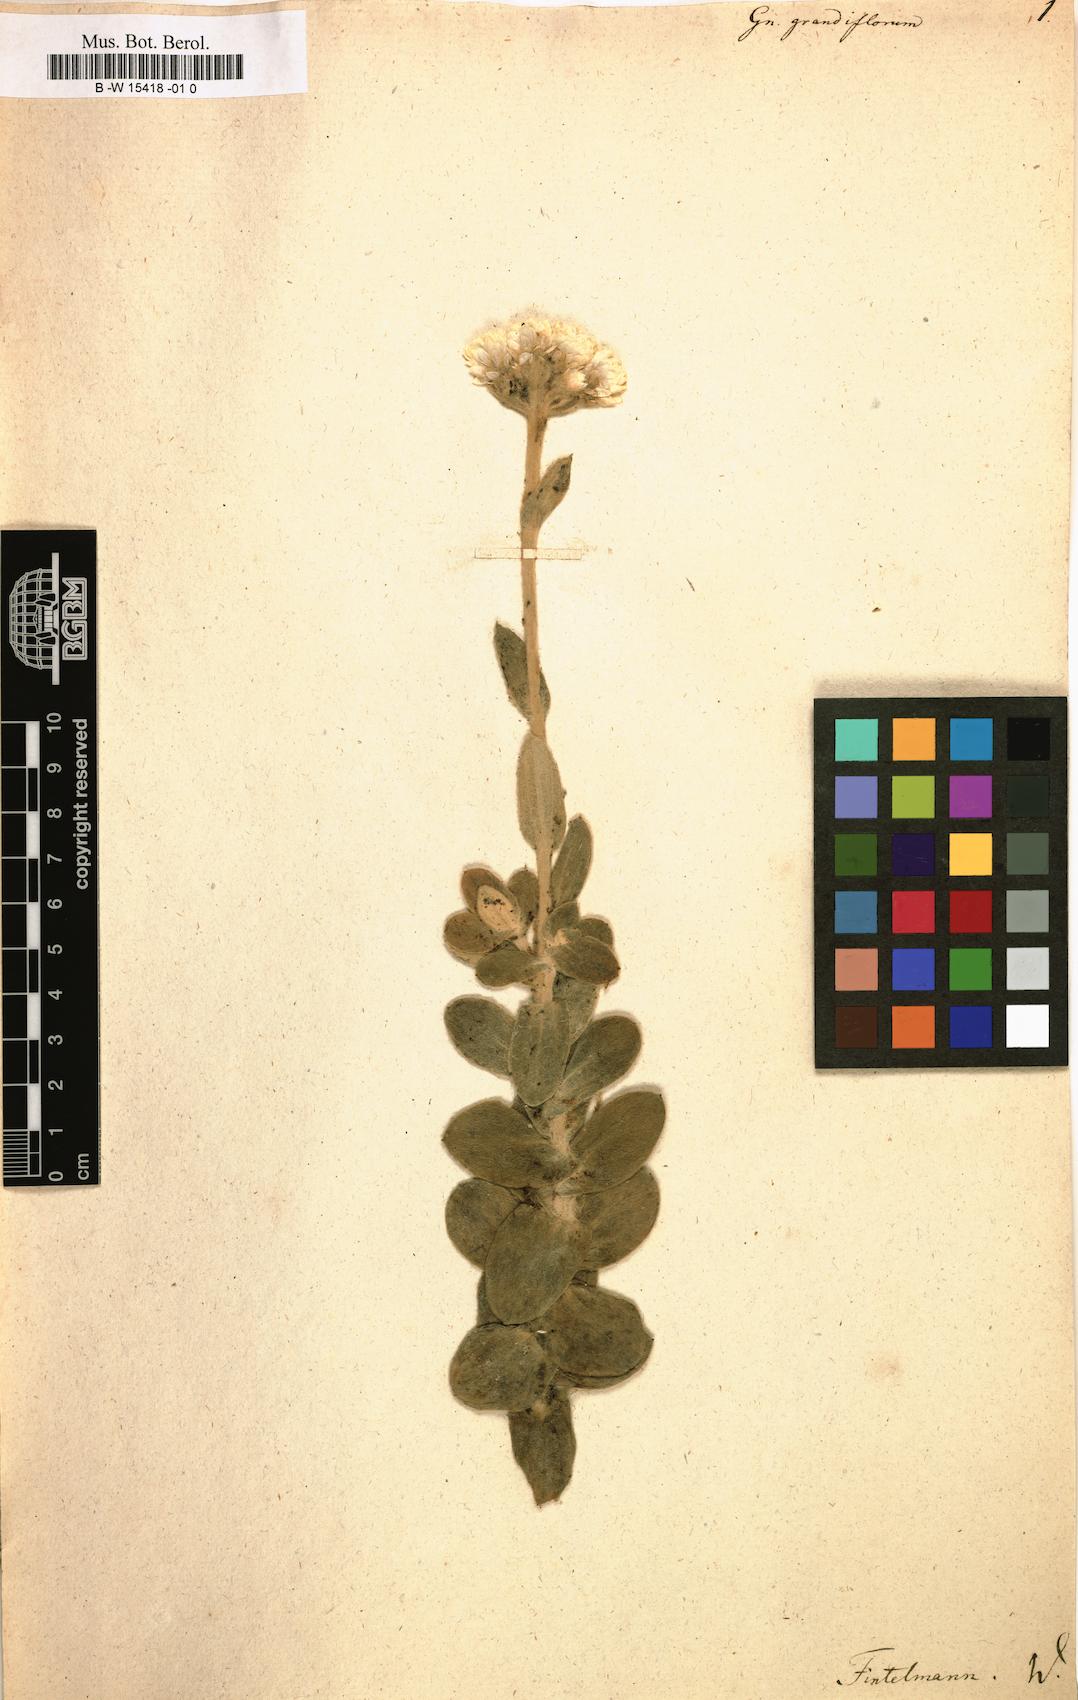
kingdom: Plantae
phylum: Tracheophyta
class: Magnoliopsida
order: Asterales
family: Asteraceae
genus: Helichrysum
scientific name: Helichrysum
